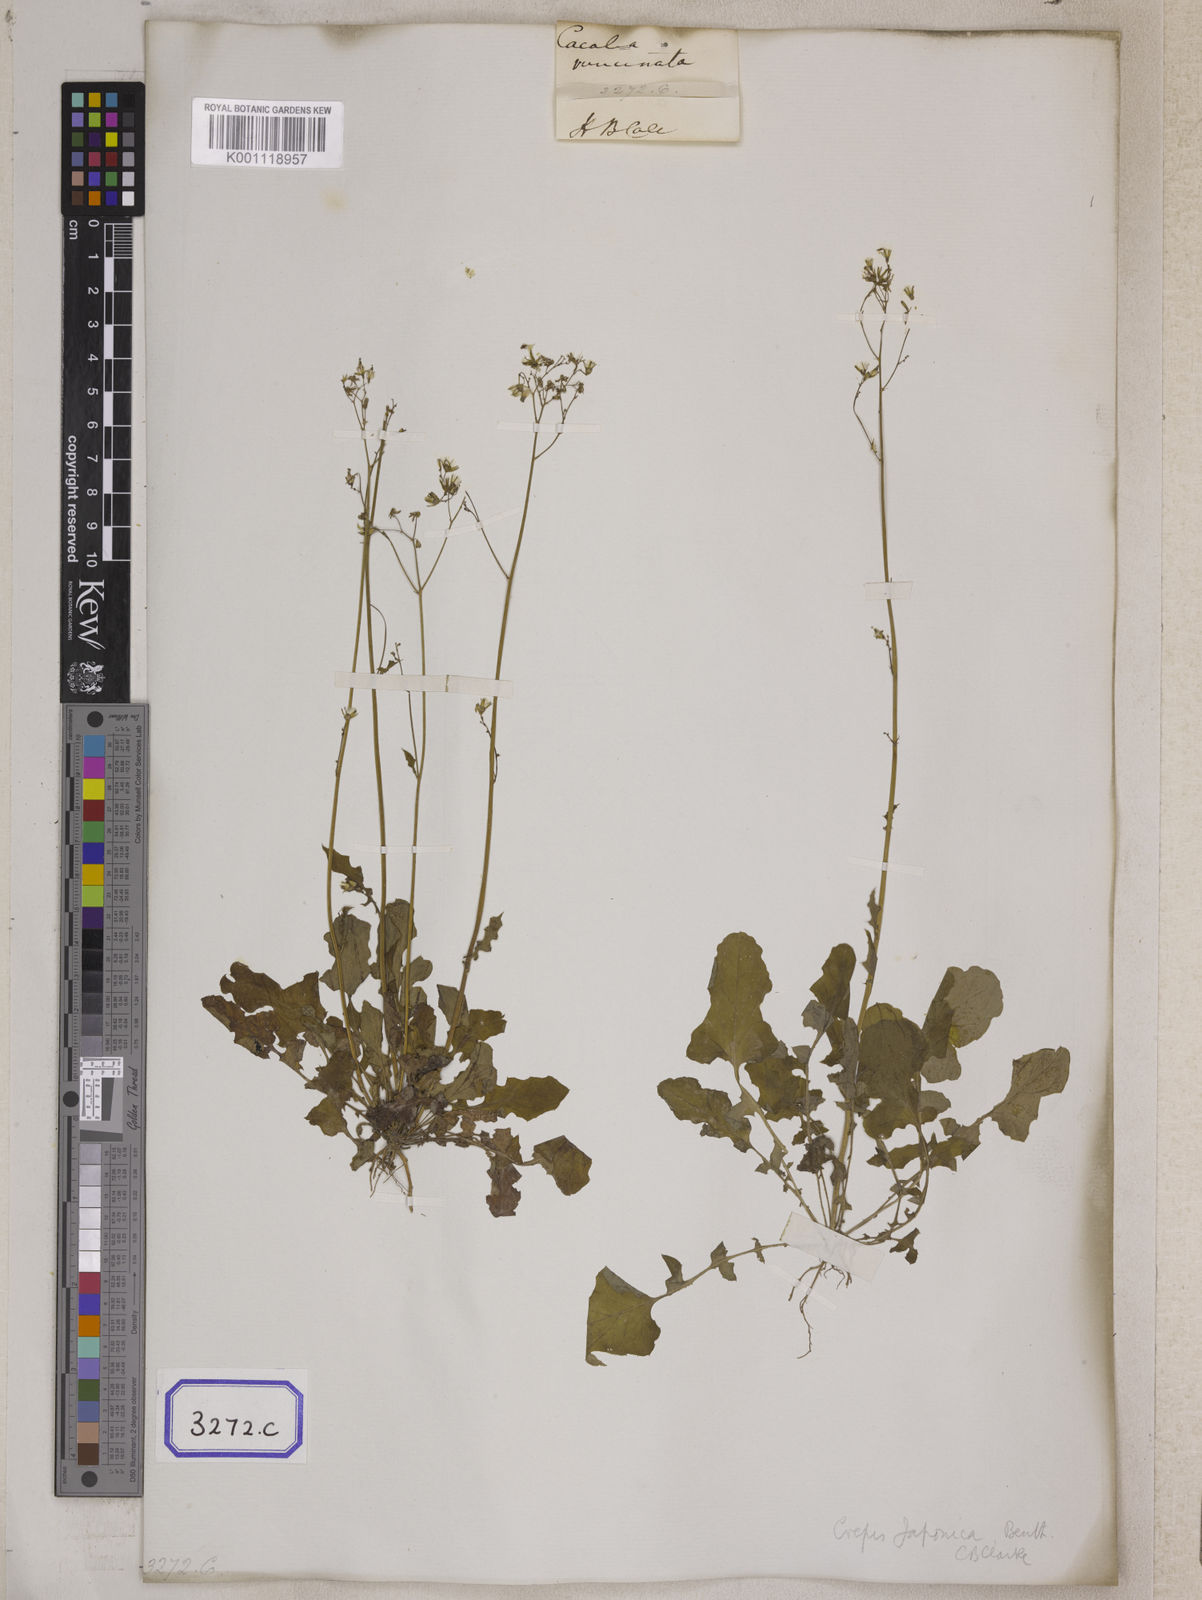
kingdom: Plantae
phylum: Tracheophyta
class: Magnoliopsida
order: Asterales
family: Asteraceae
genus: Youngia
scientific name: Youngia japonica
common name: Oriental false hawksbeard
